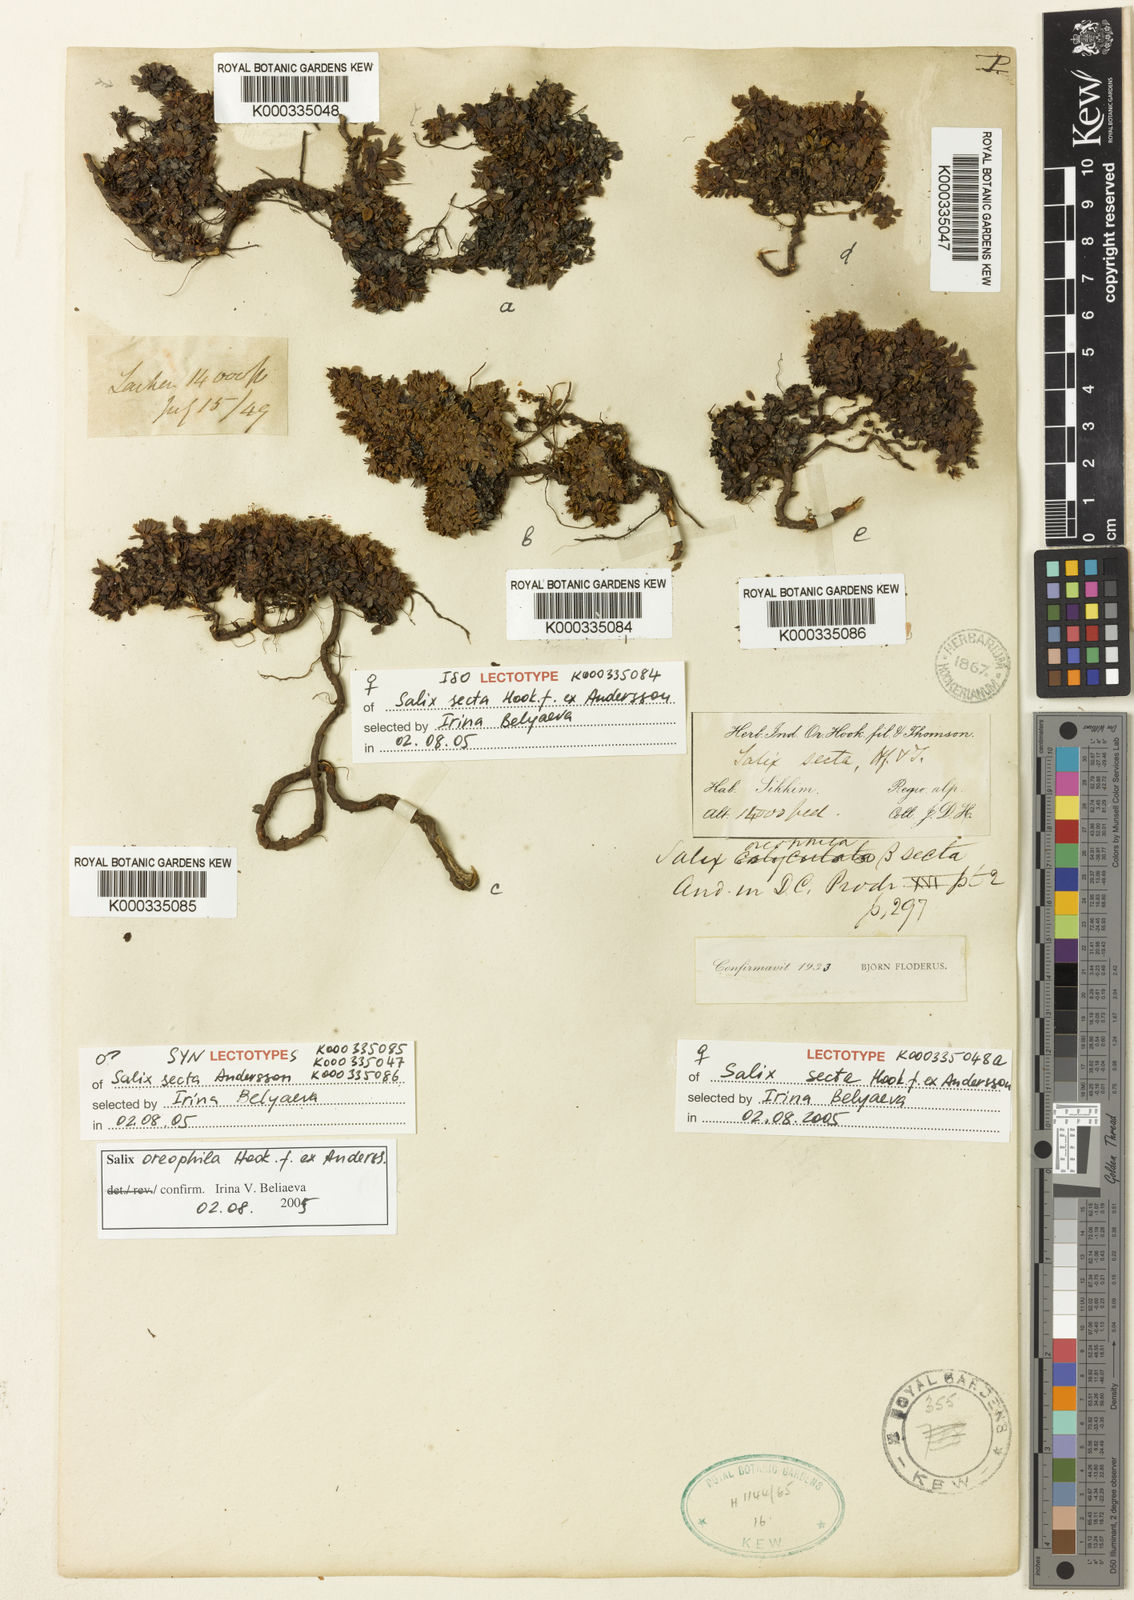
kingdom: Plantae
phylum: Tracheophyta
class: Magnoliopsida
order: Malpighiales
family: Salicaceae
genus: Salix
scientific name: Salix oreophila
